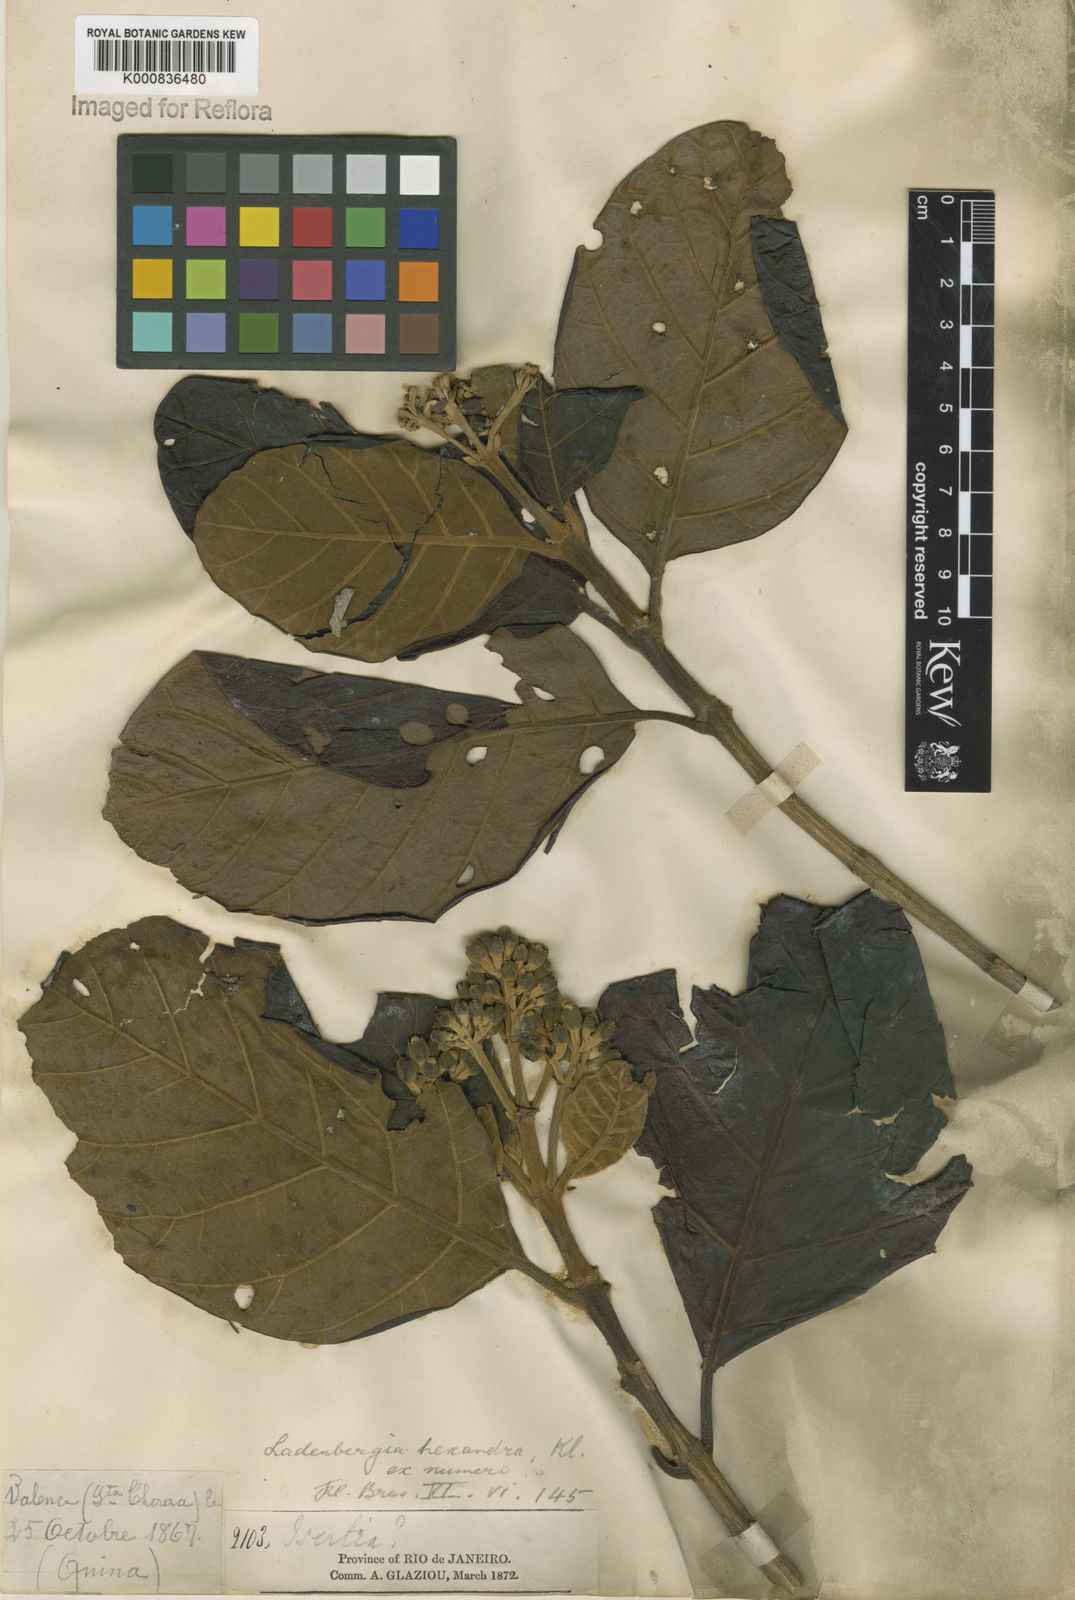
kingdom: Plantae
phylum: Tracheophyta
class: Magnoliopsida
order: Gentianales
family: Rubiaceae
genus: Ladenbergia
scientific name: Ladenbergia hexandra
